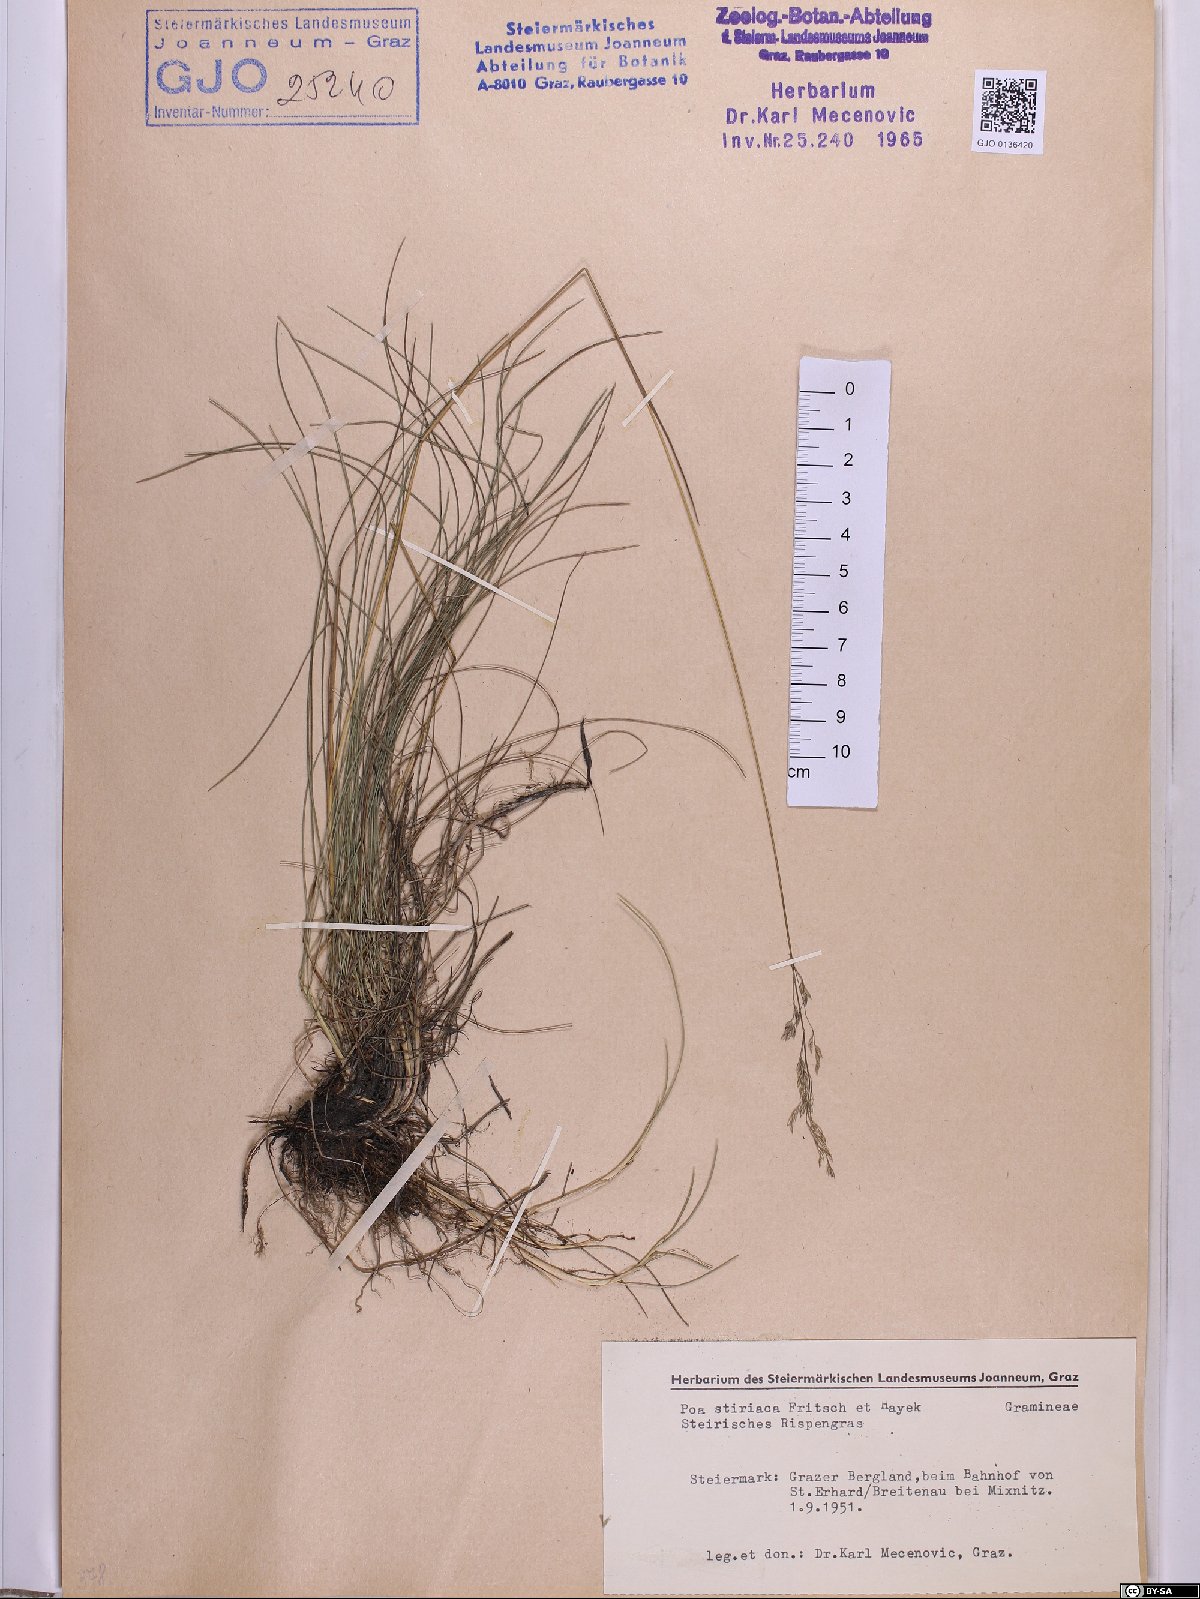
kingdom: Plantae
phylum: Tracheophyta
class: Liliopsida
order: Poales
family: Poaceae
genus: Poa
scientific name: Poa stiriaca
